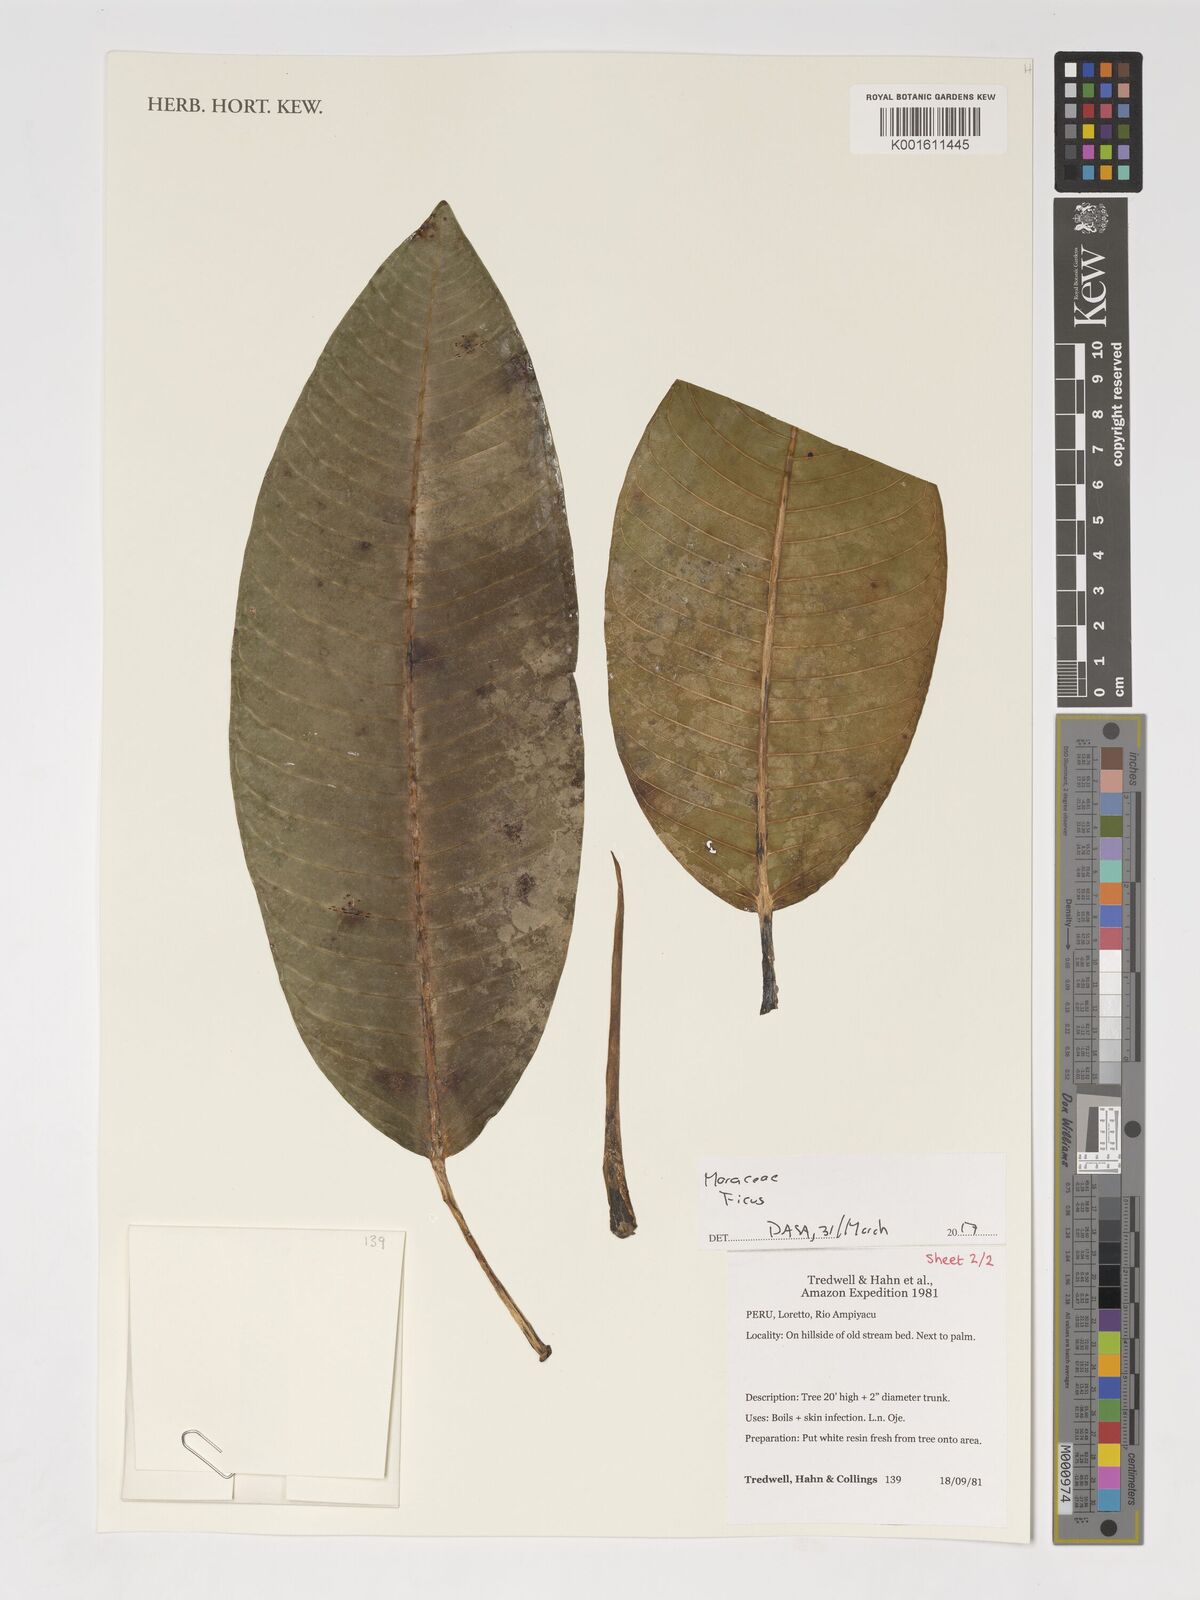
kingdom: Plantae
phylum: Tracheophyta
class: Magnoliopsida
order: Rosales
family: Moraceae
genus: Ficus
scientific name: Ficus
